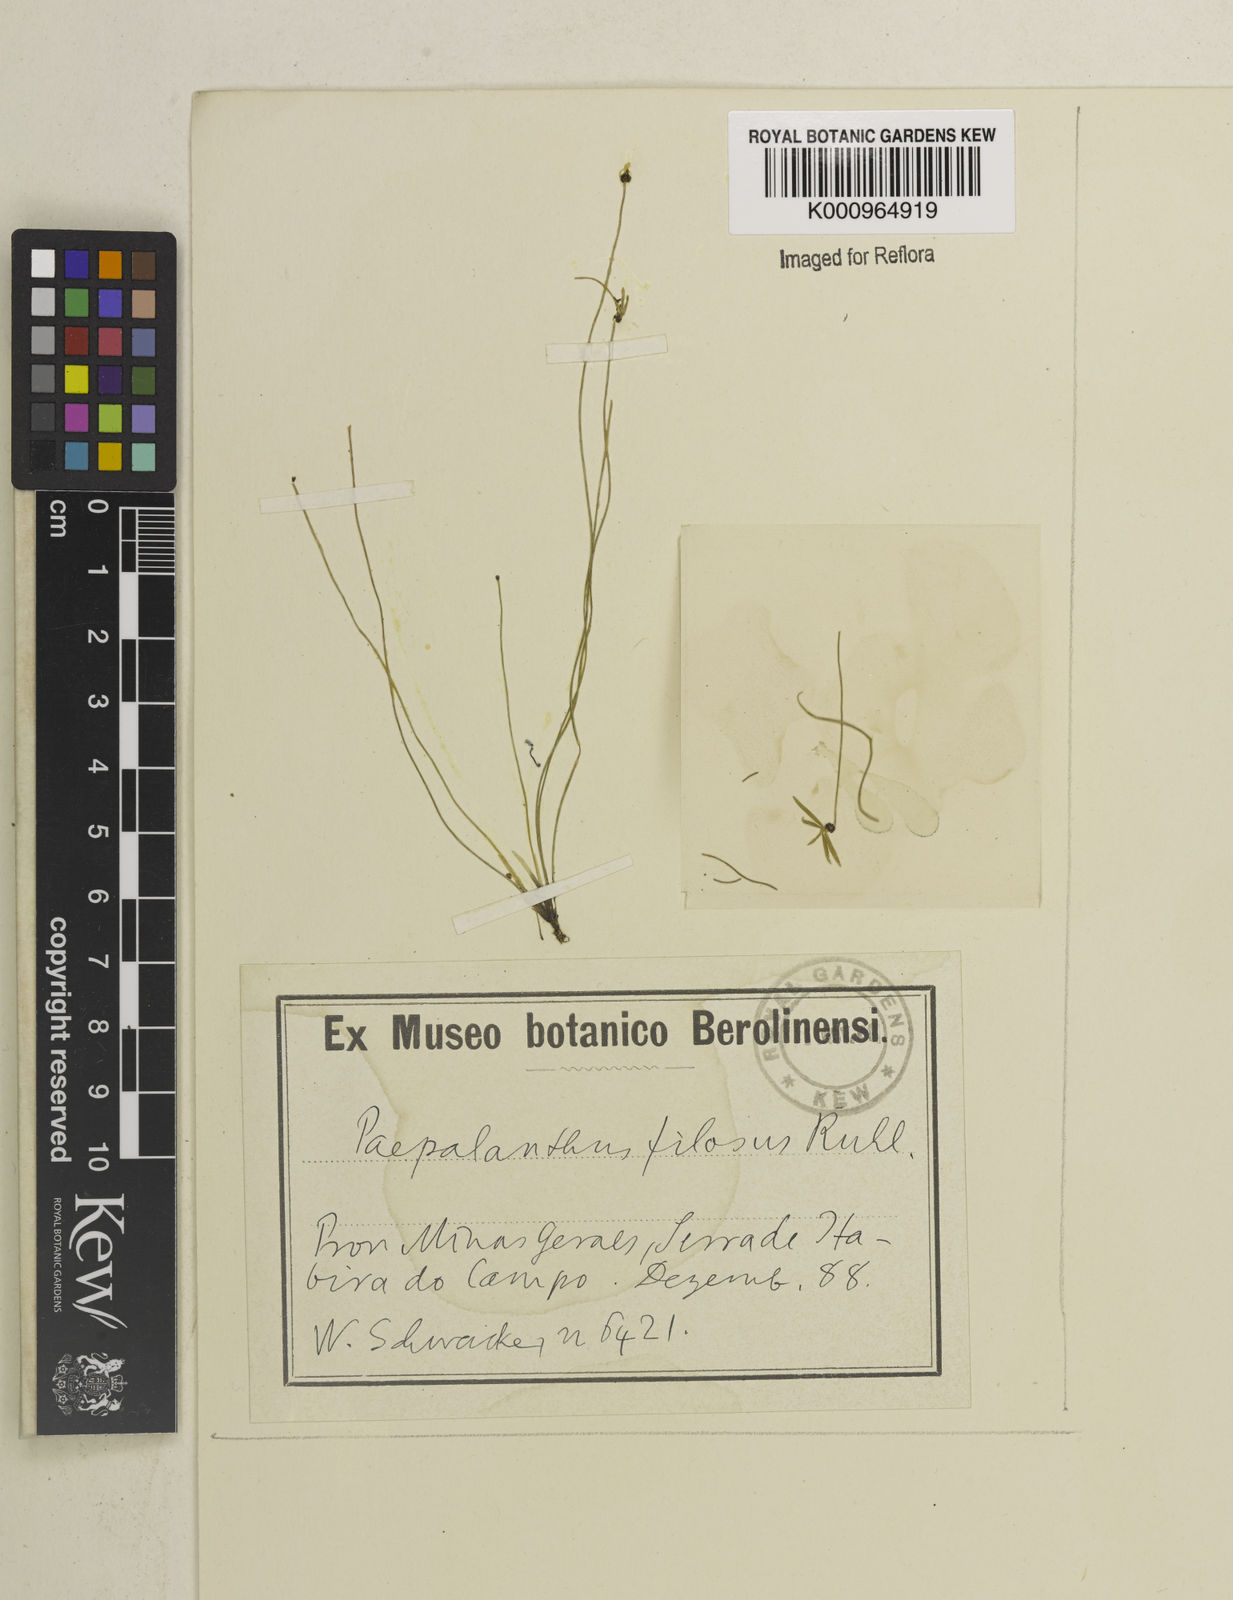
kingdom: Plantae
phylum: Tracheophyta
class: Liliopsida
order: Poales
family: Eriocaulaceae
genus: Paepalanthus
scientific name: Paepalanthus scirpeus
